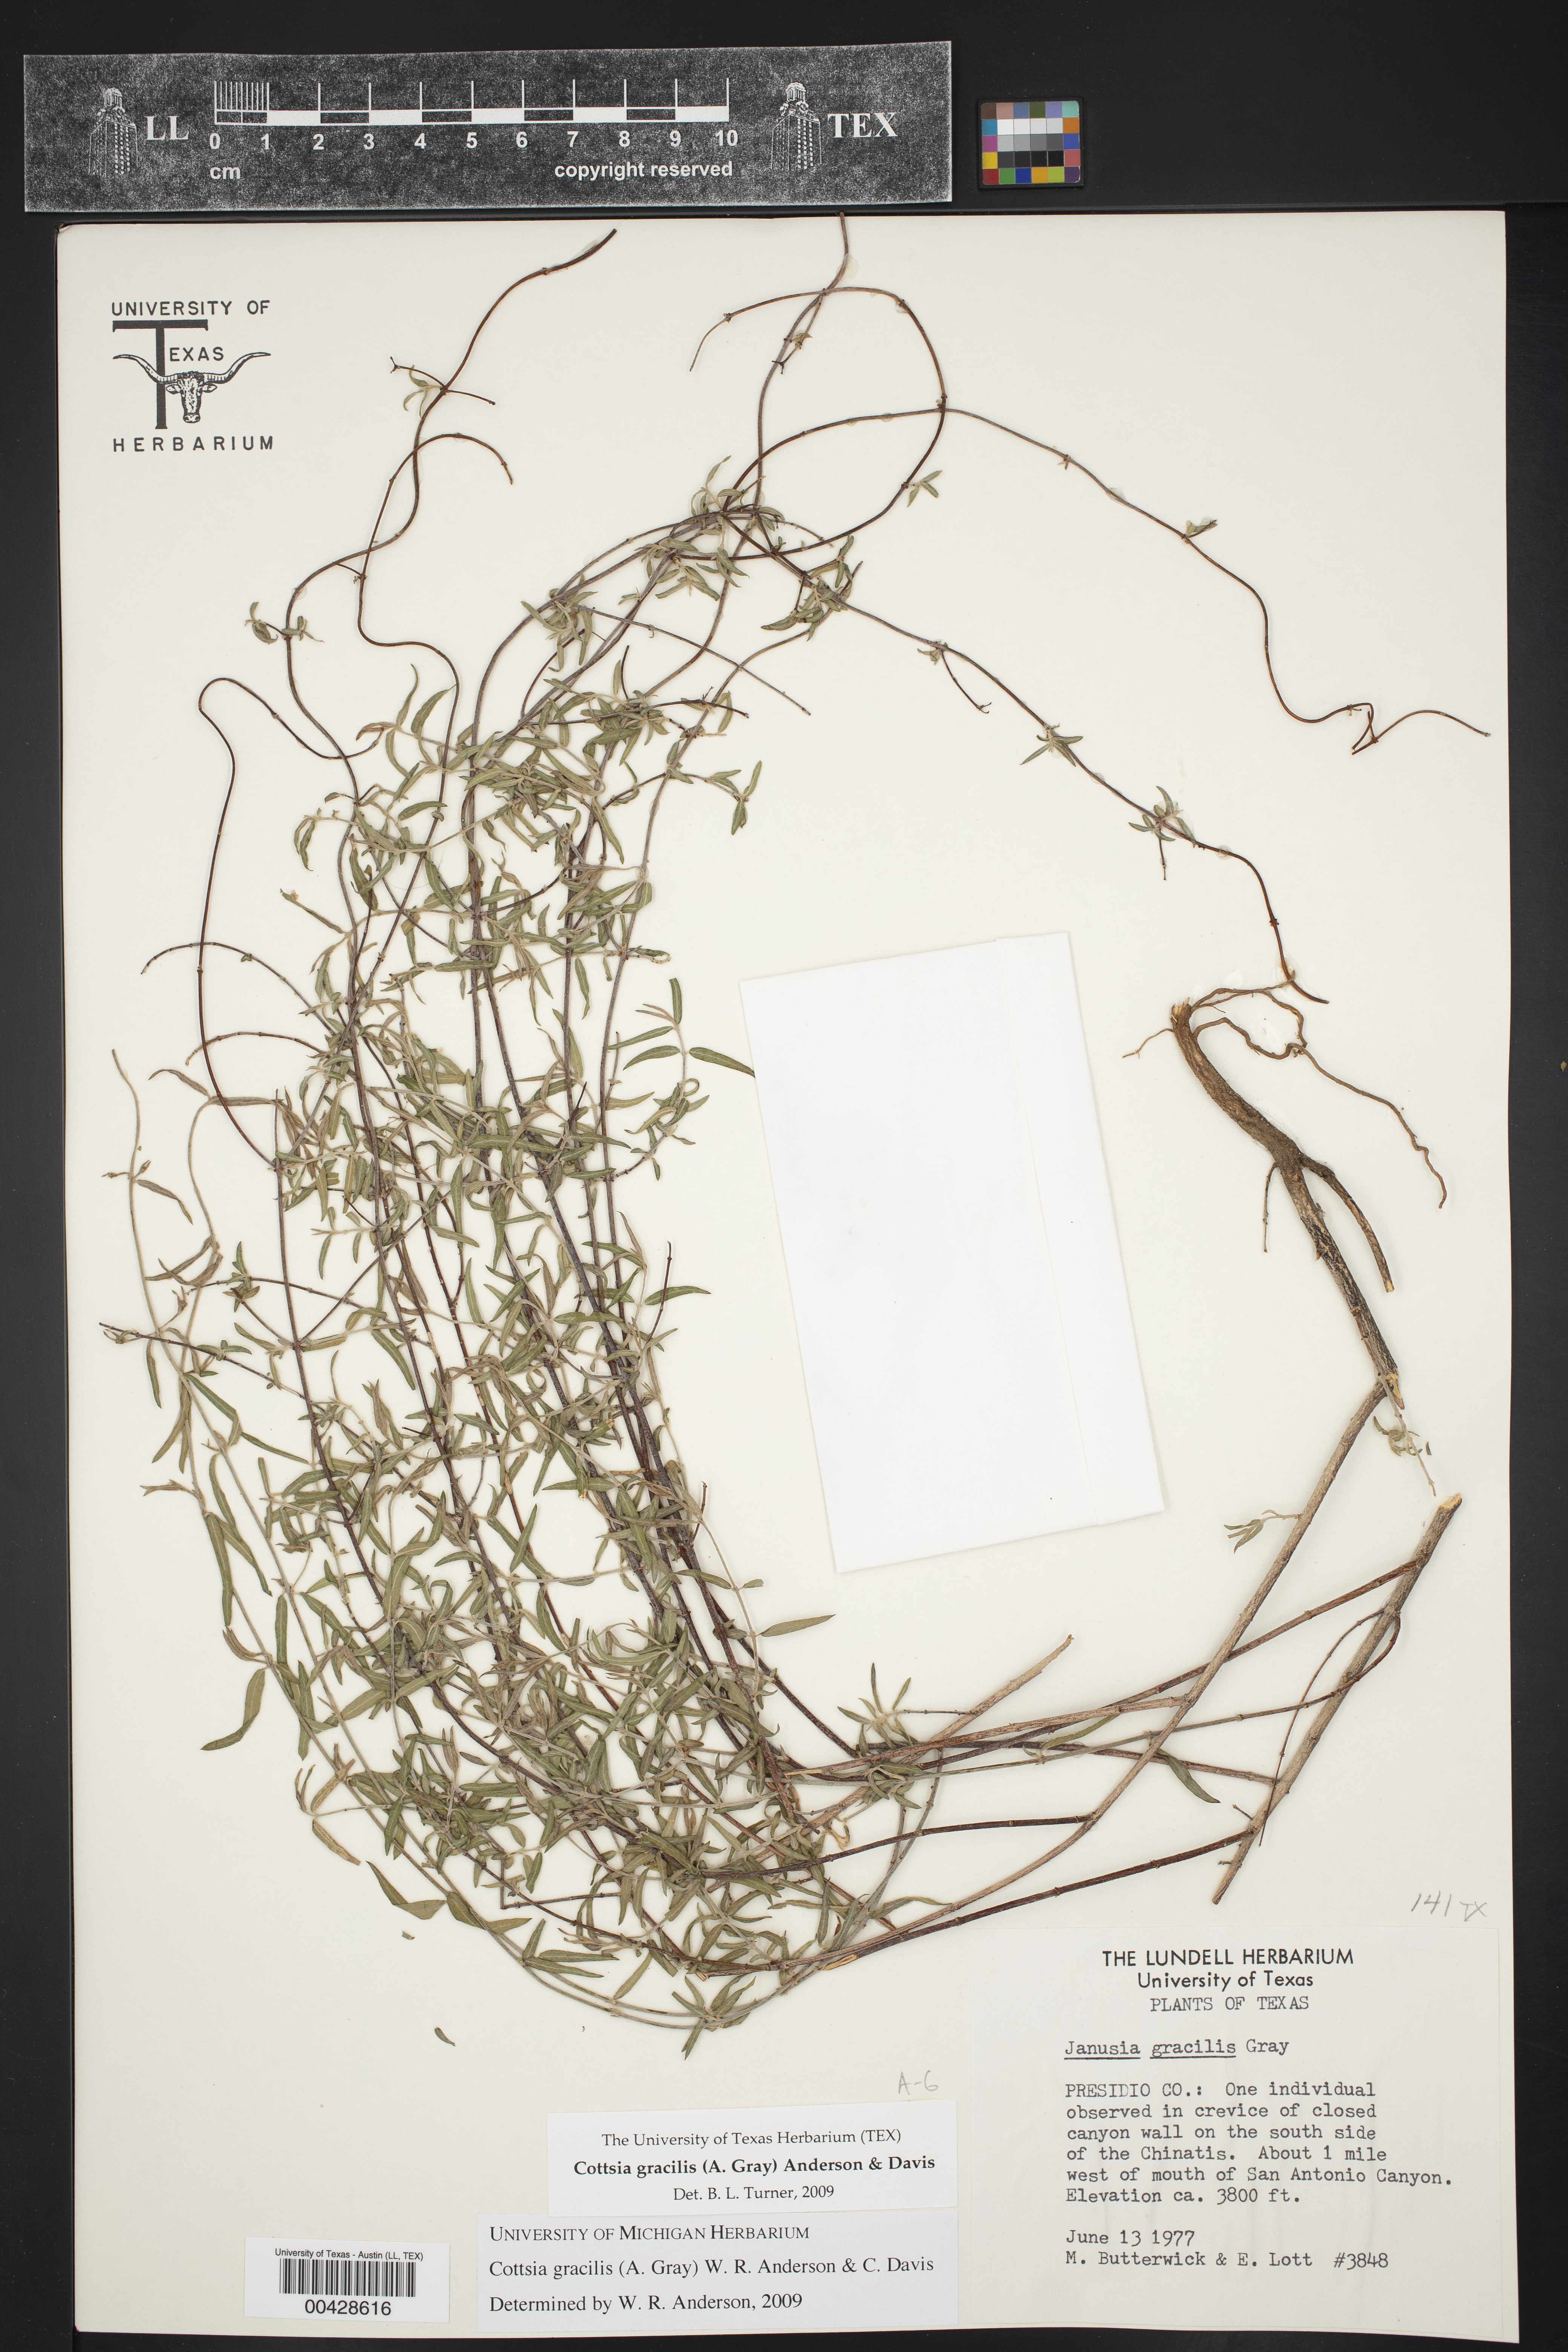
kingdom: Plantae
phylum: Tracheophyta
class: Magnoliopsida
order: Malpighiales
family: Malpighiaceae
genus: Cottsia
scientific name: Cottsia gracilis
